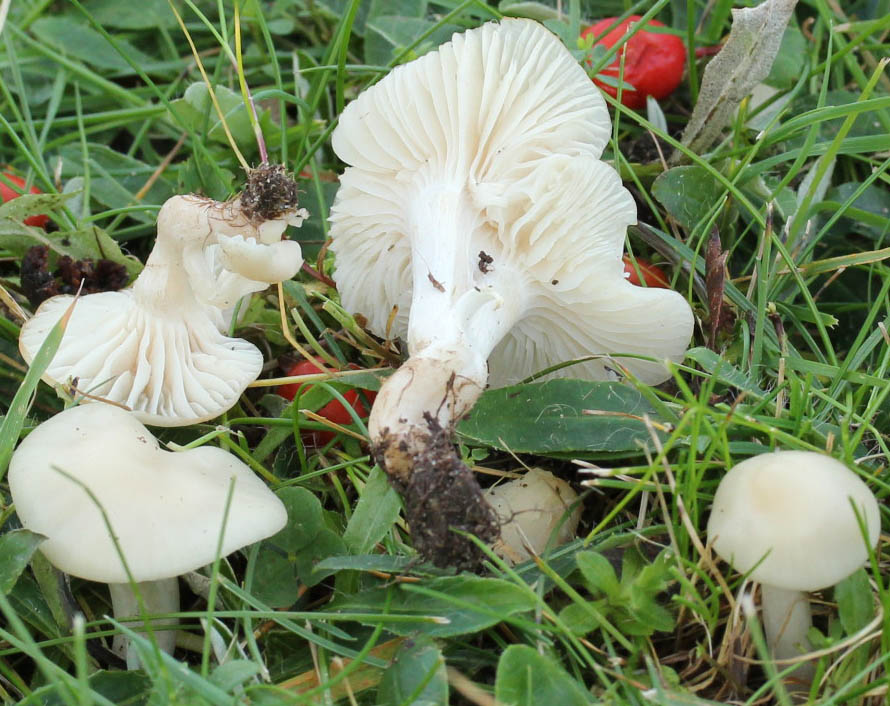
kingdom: Fungi
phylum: Basidiomycota
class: Agaricomycetes
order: Agaricales
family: Hygrophoraceae
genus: Cuphophyllus
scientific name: Cuphophyllus virgineus
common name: snehvid vokshat
